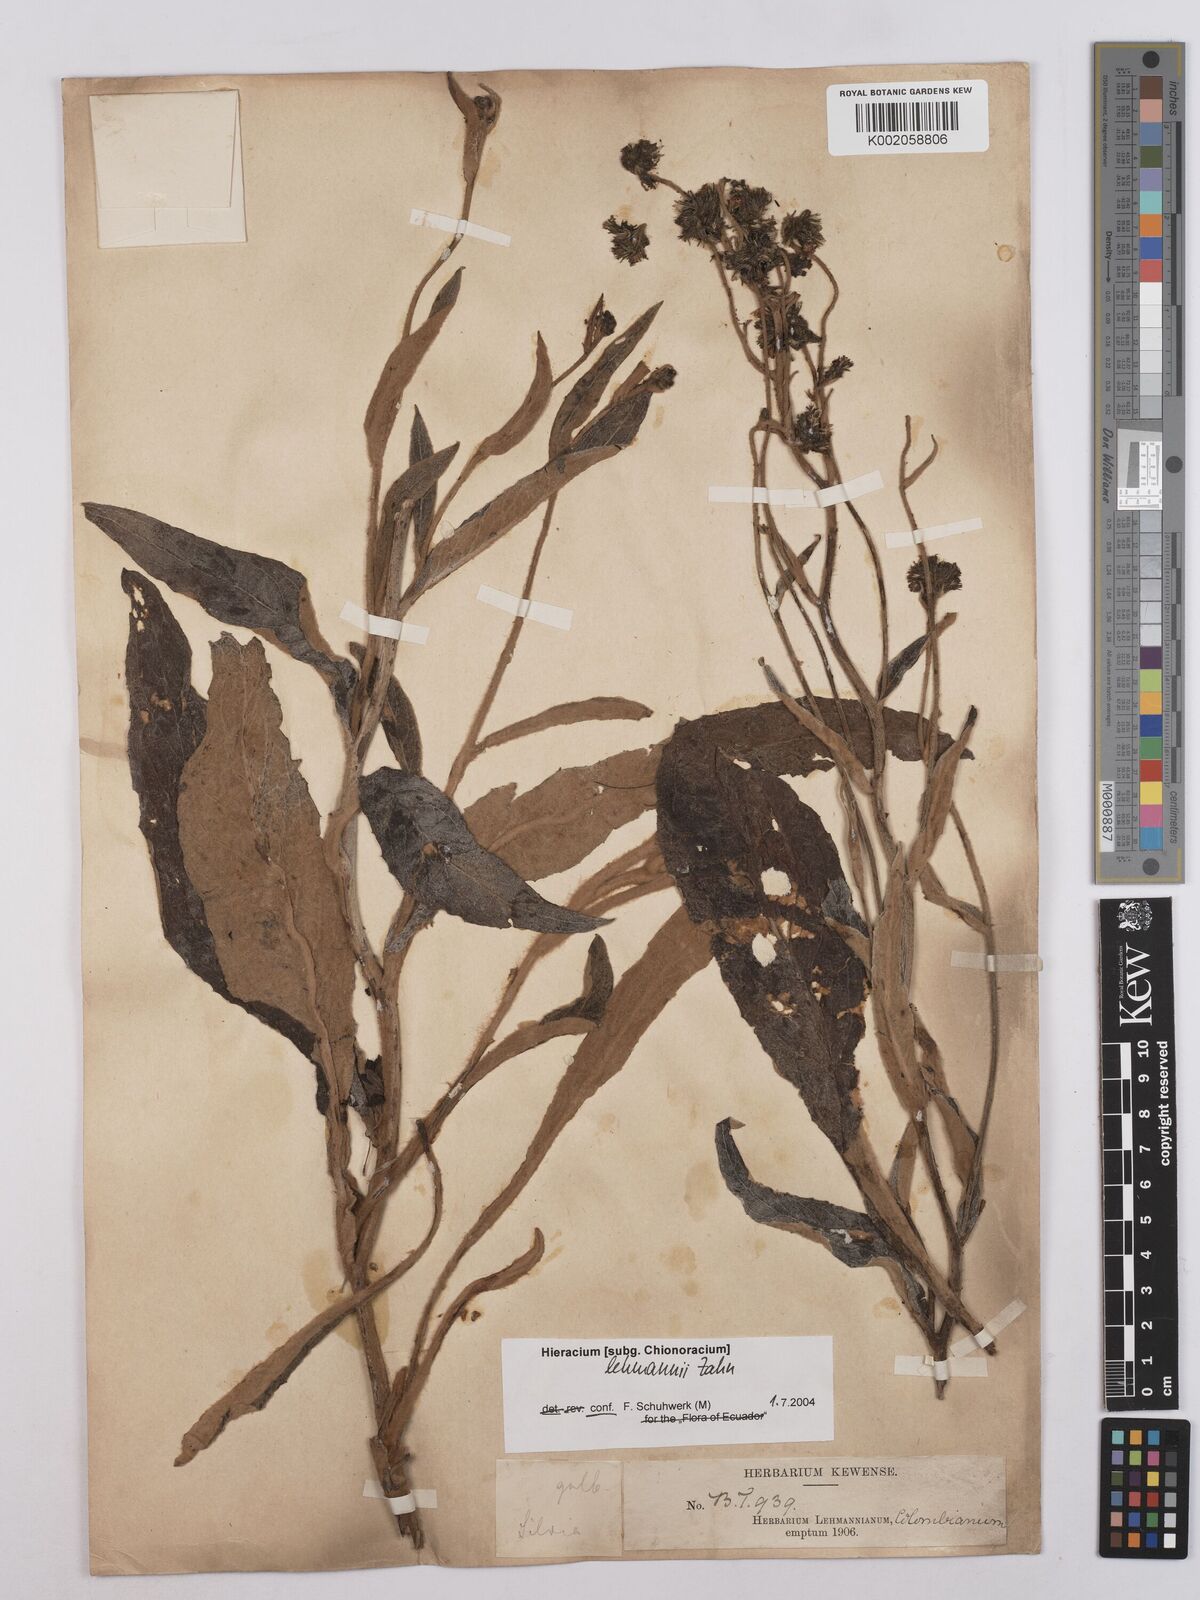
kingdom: Plantae
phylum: Tracheophyta
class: Magnoliopsida
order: Asterales
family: Asteraceae
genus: Hieracium
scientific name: Hieracium lehmannii
